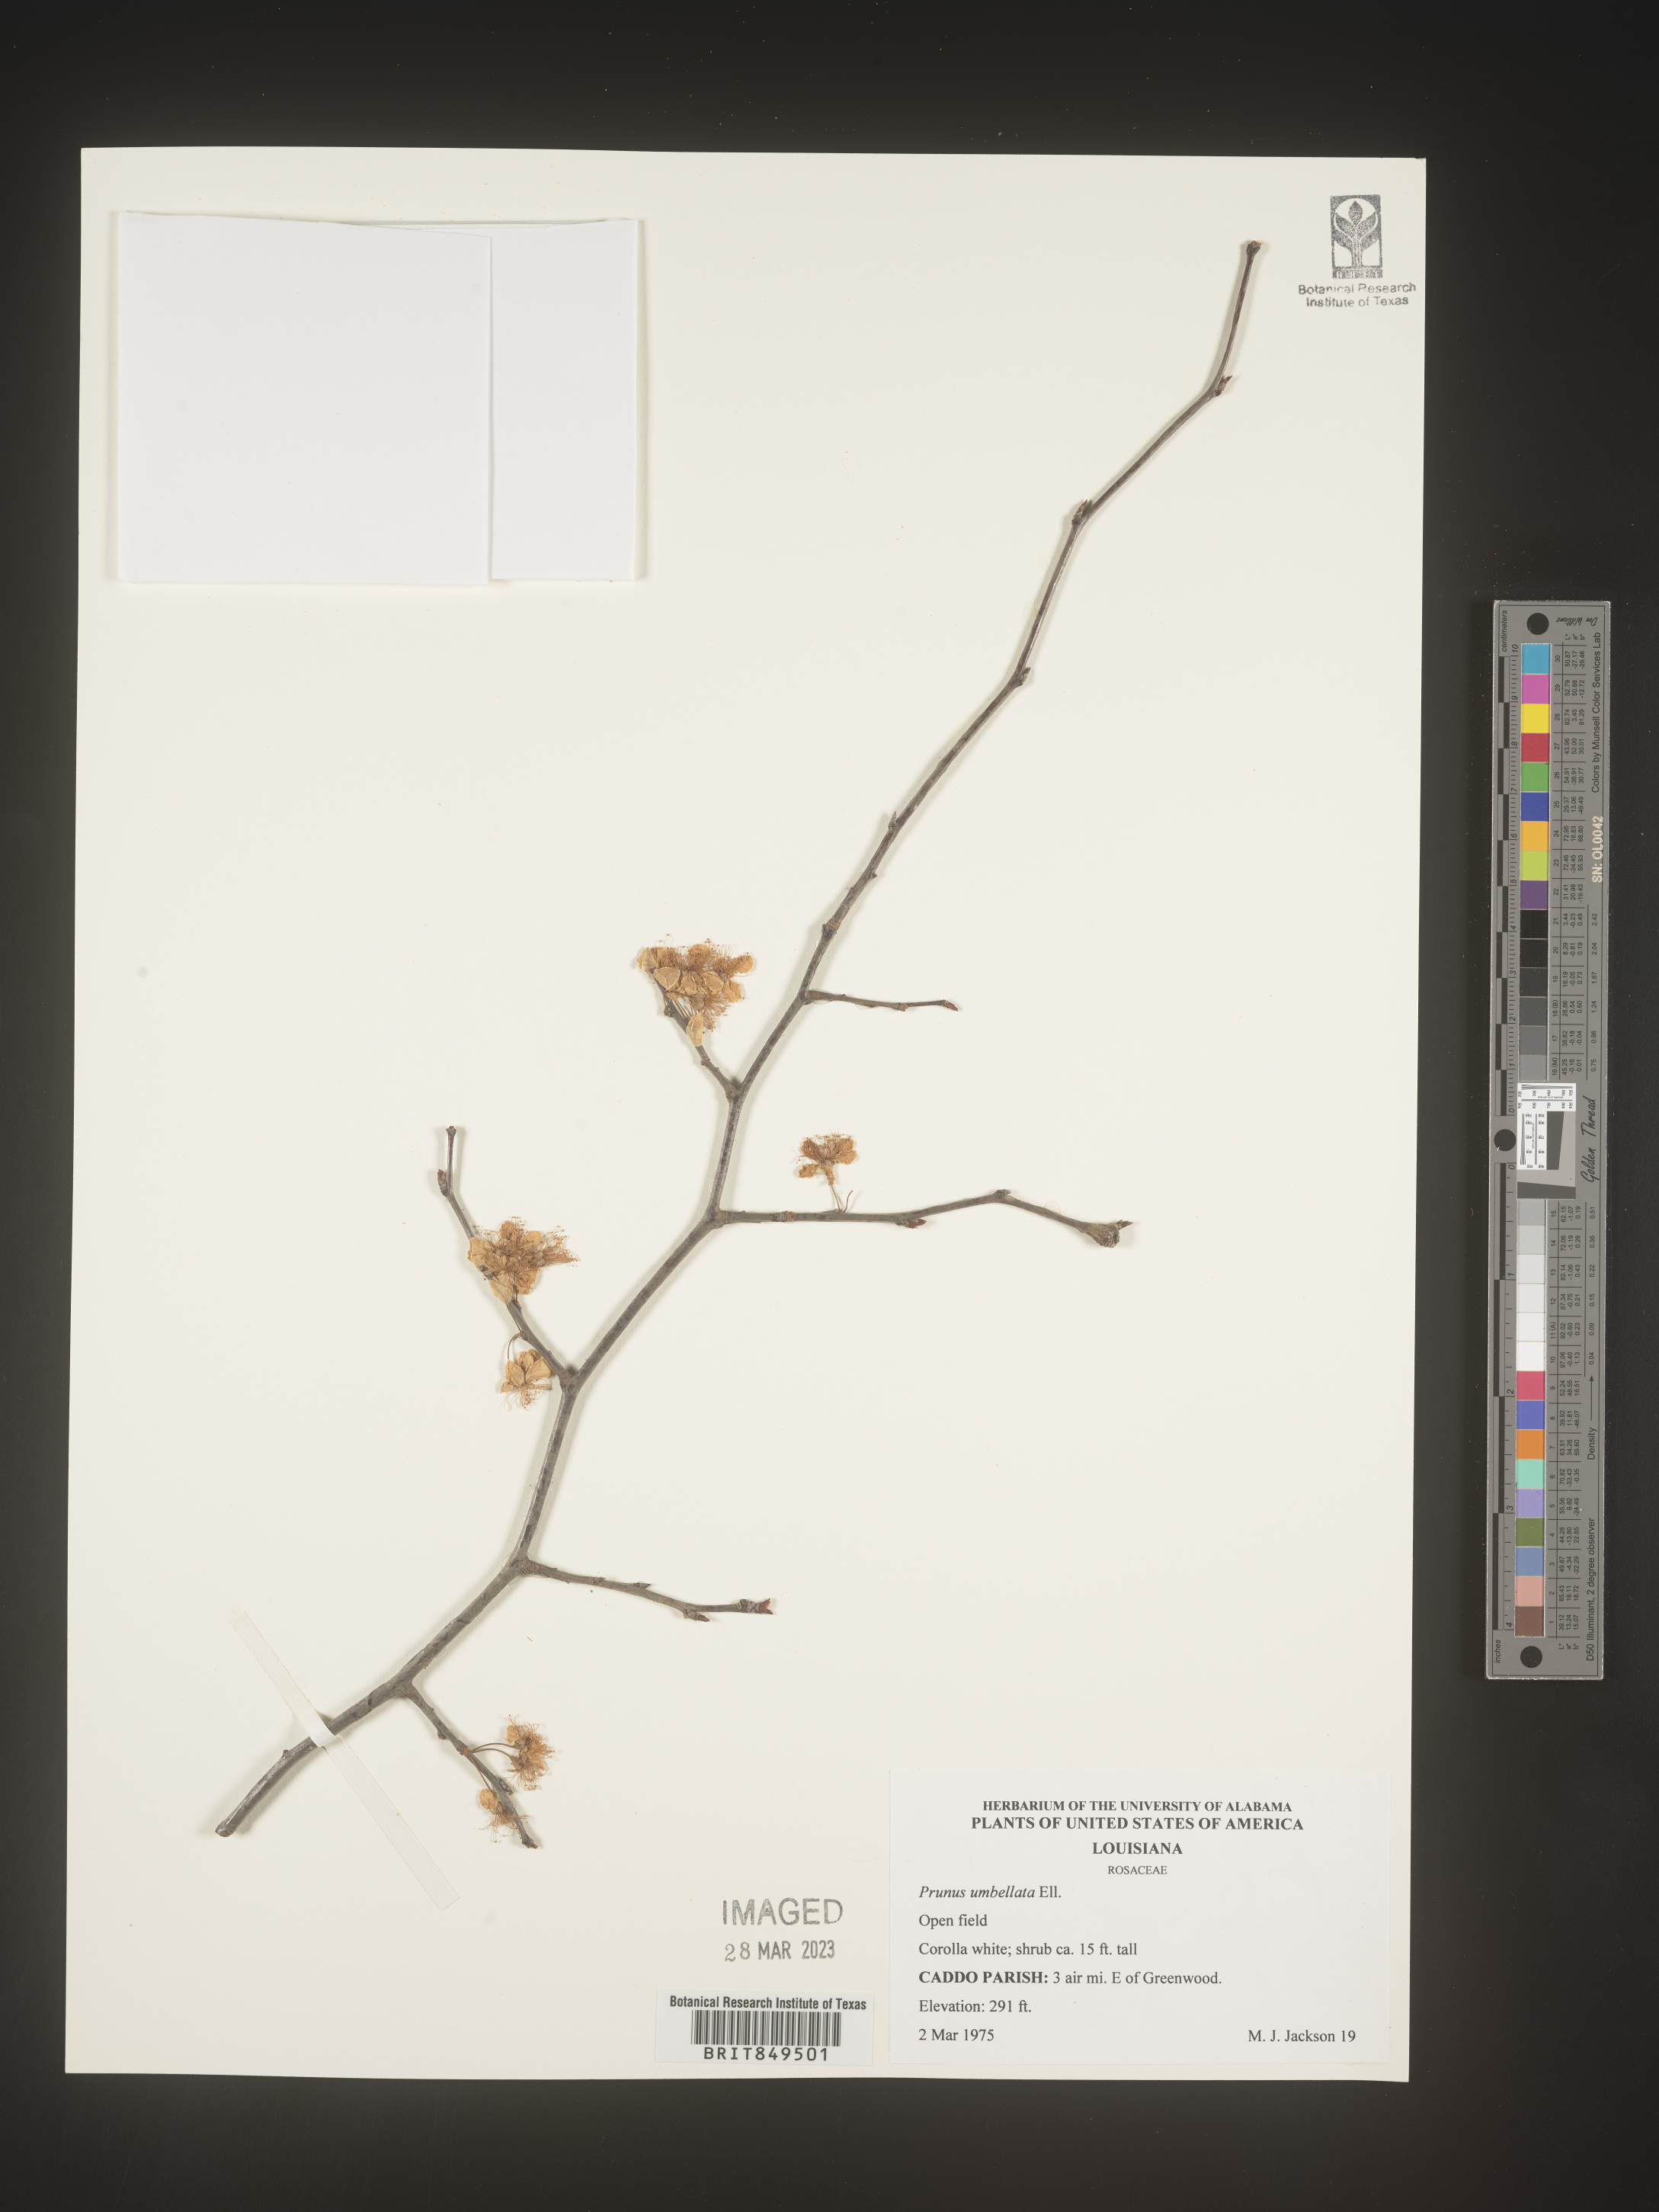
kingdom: Plantae
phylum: Tracheophyta
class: Magnoliopsida
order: Rosales
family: Rosaceae
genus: Prunus
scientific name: Prunus umbellata
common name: Allegheny plum
